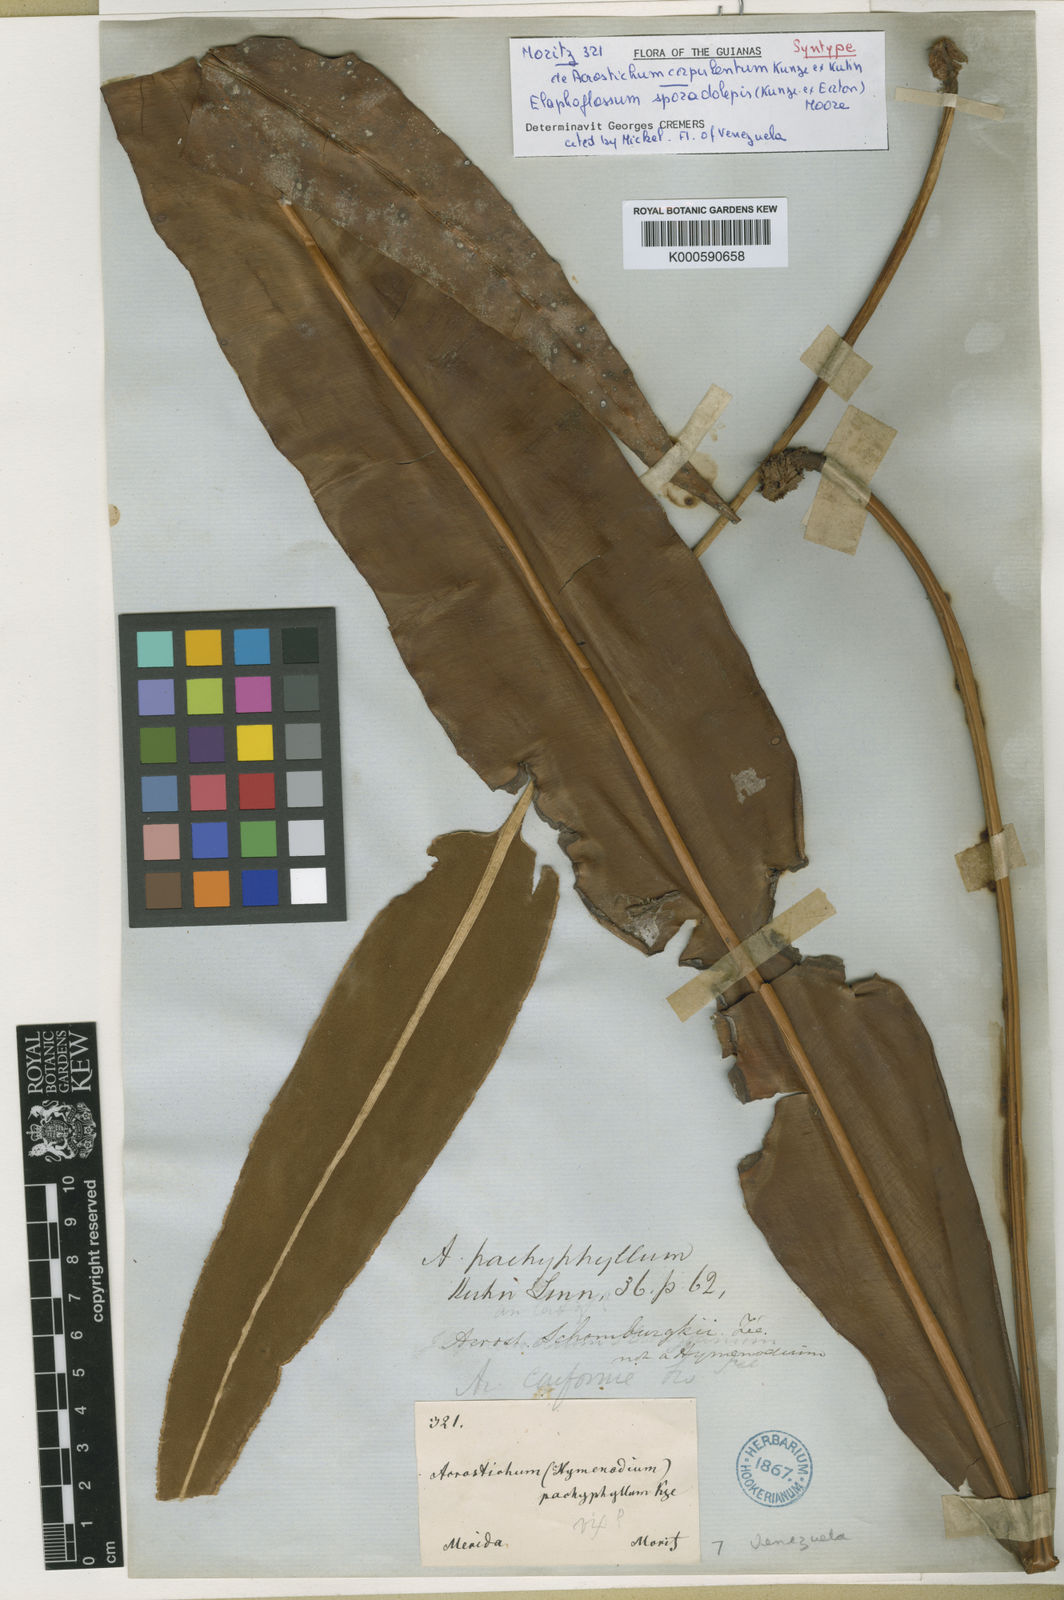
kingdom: Plantae
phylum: Tracheophyta
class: Polypodiopsida
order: Polypodiales
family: Dryopteridaceae
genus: Elaphoglossum
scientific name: Elaphoglossum sporadolepis
